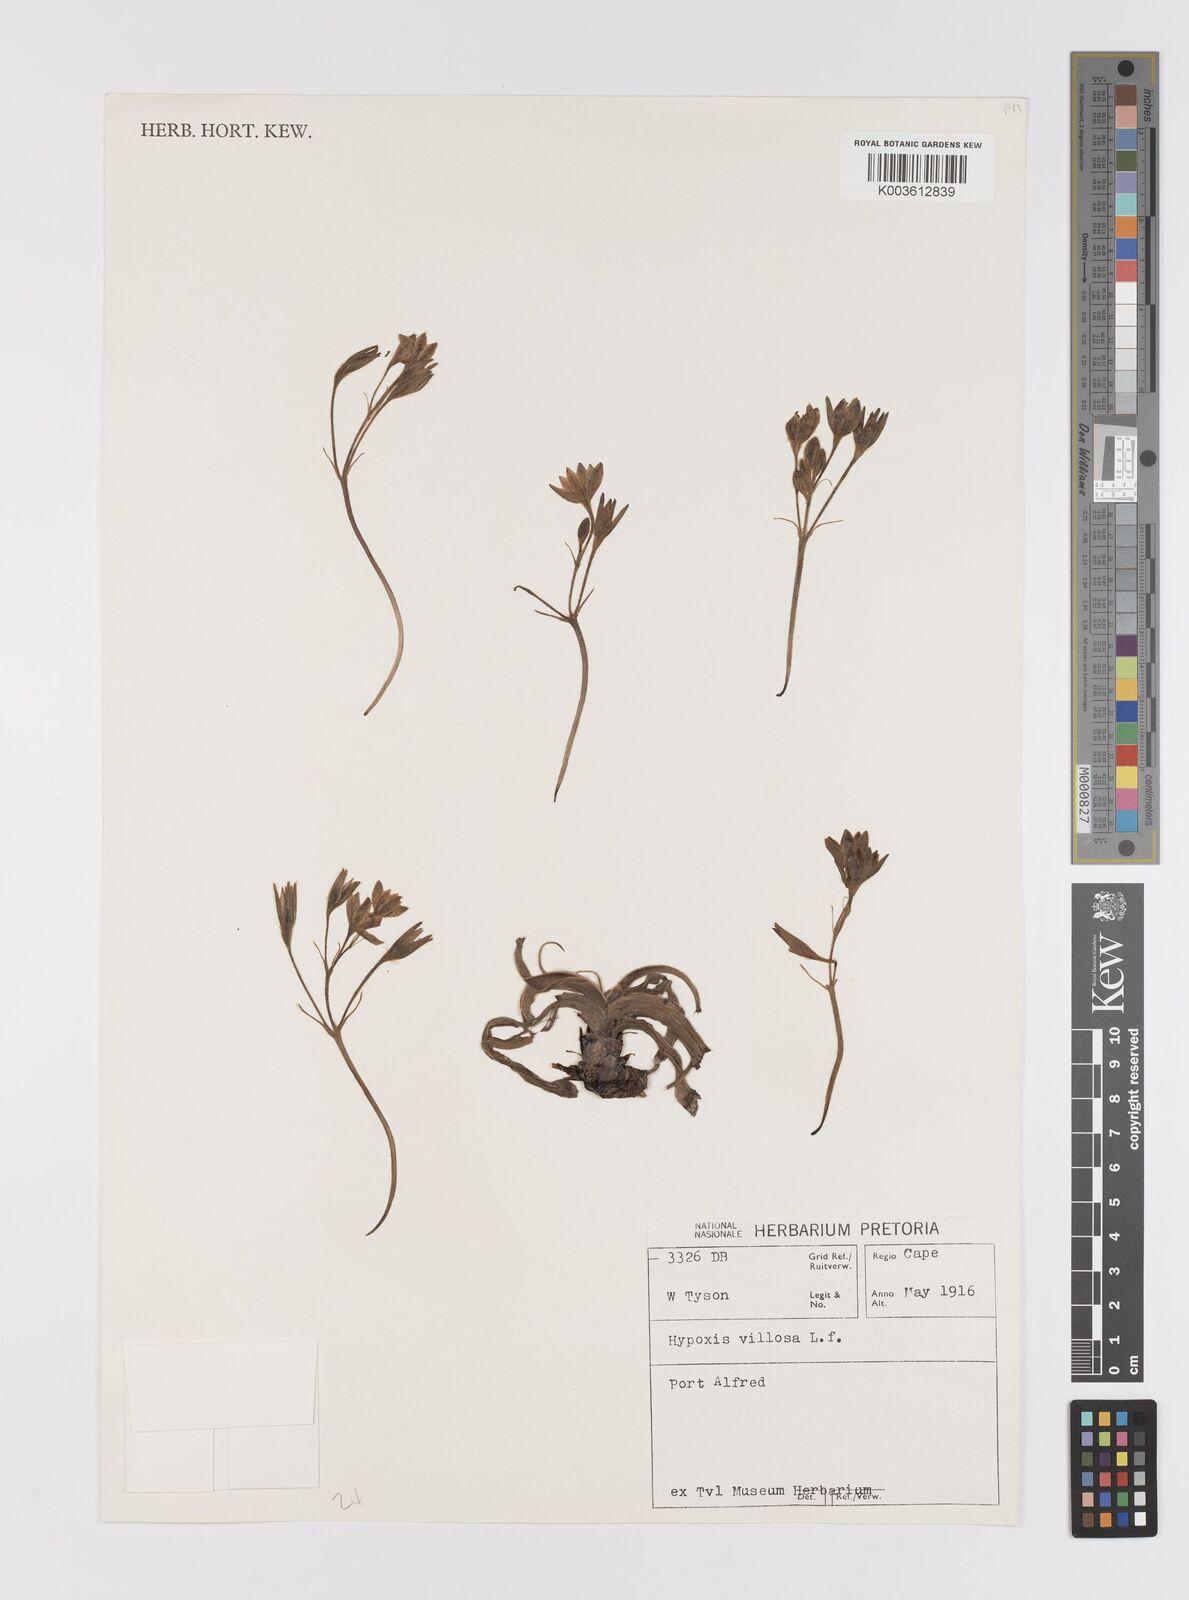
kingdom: Plantae
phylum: Tracheophyta
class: Liliopsida
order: Asparagales
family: Hypoxidaceae
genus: Hypoxis
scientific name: Hypoxis villosa
